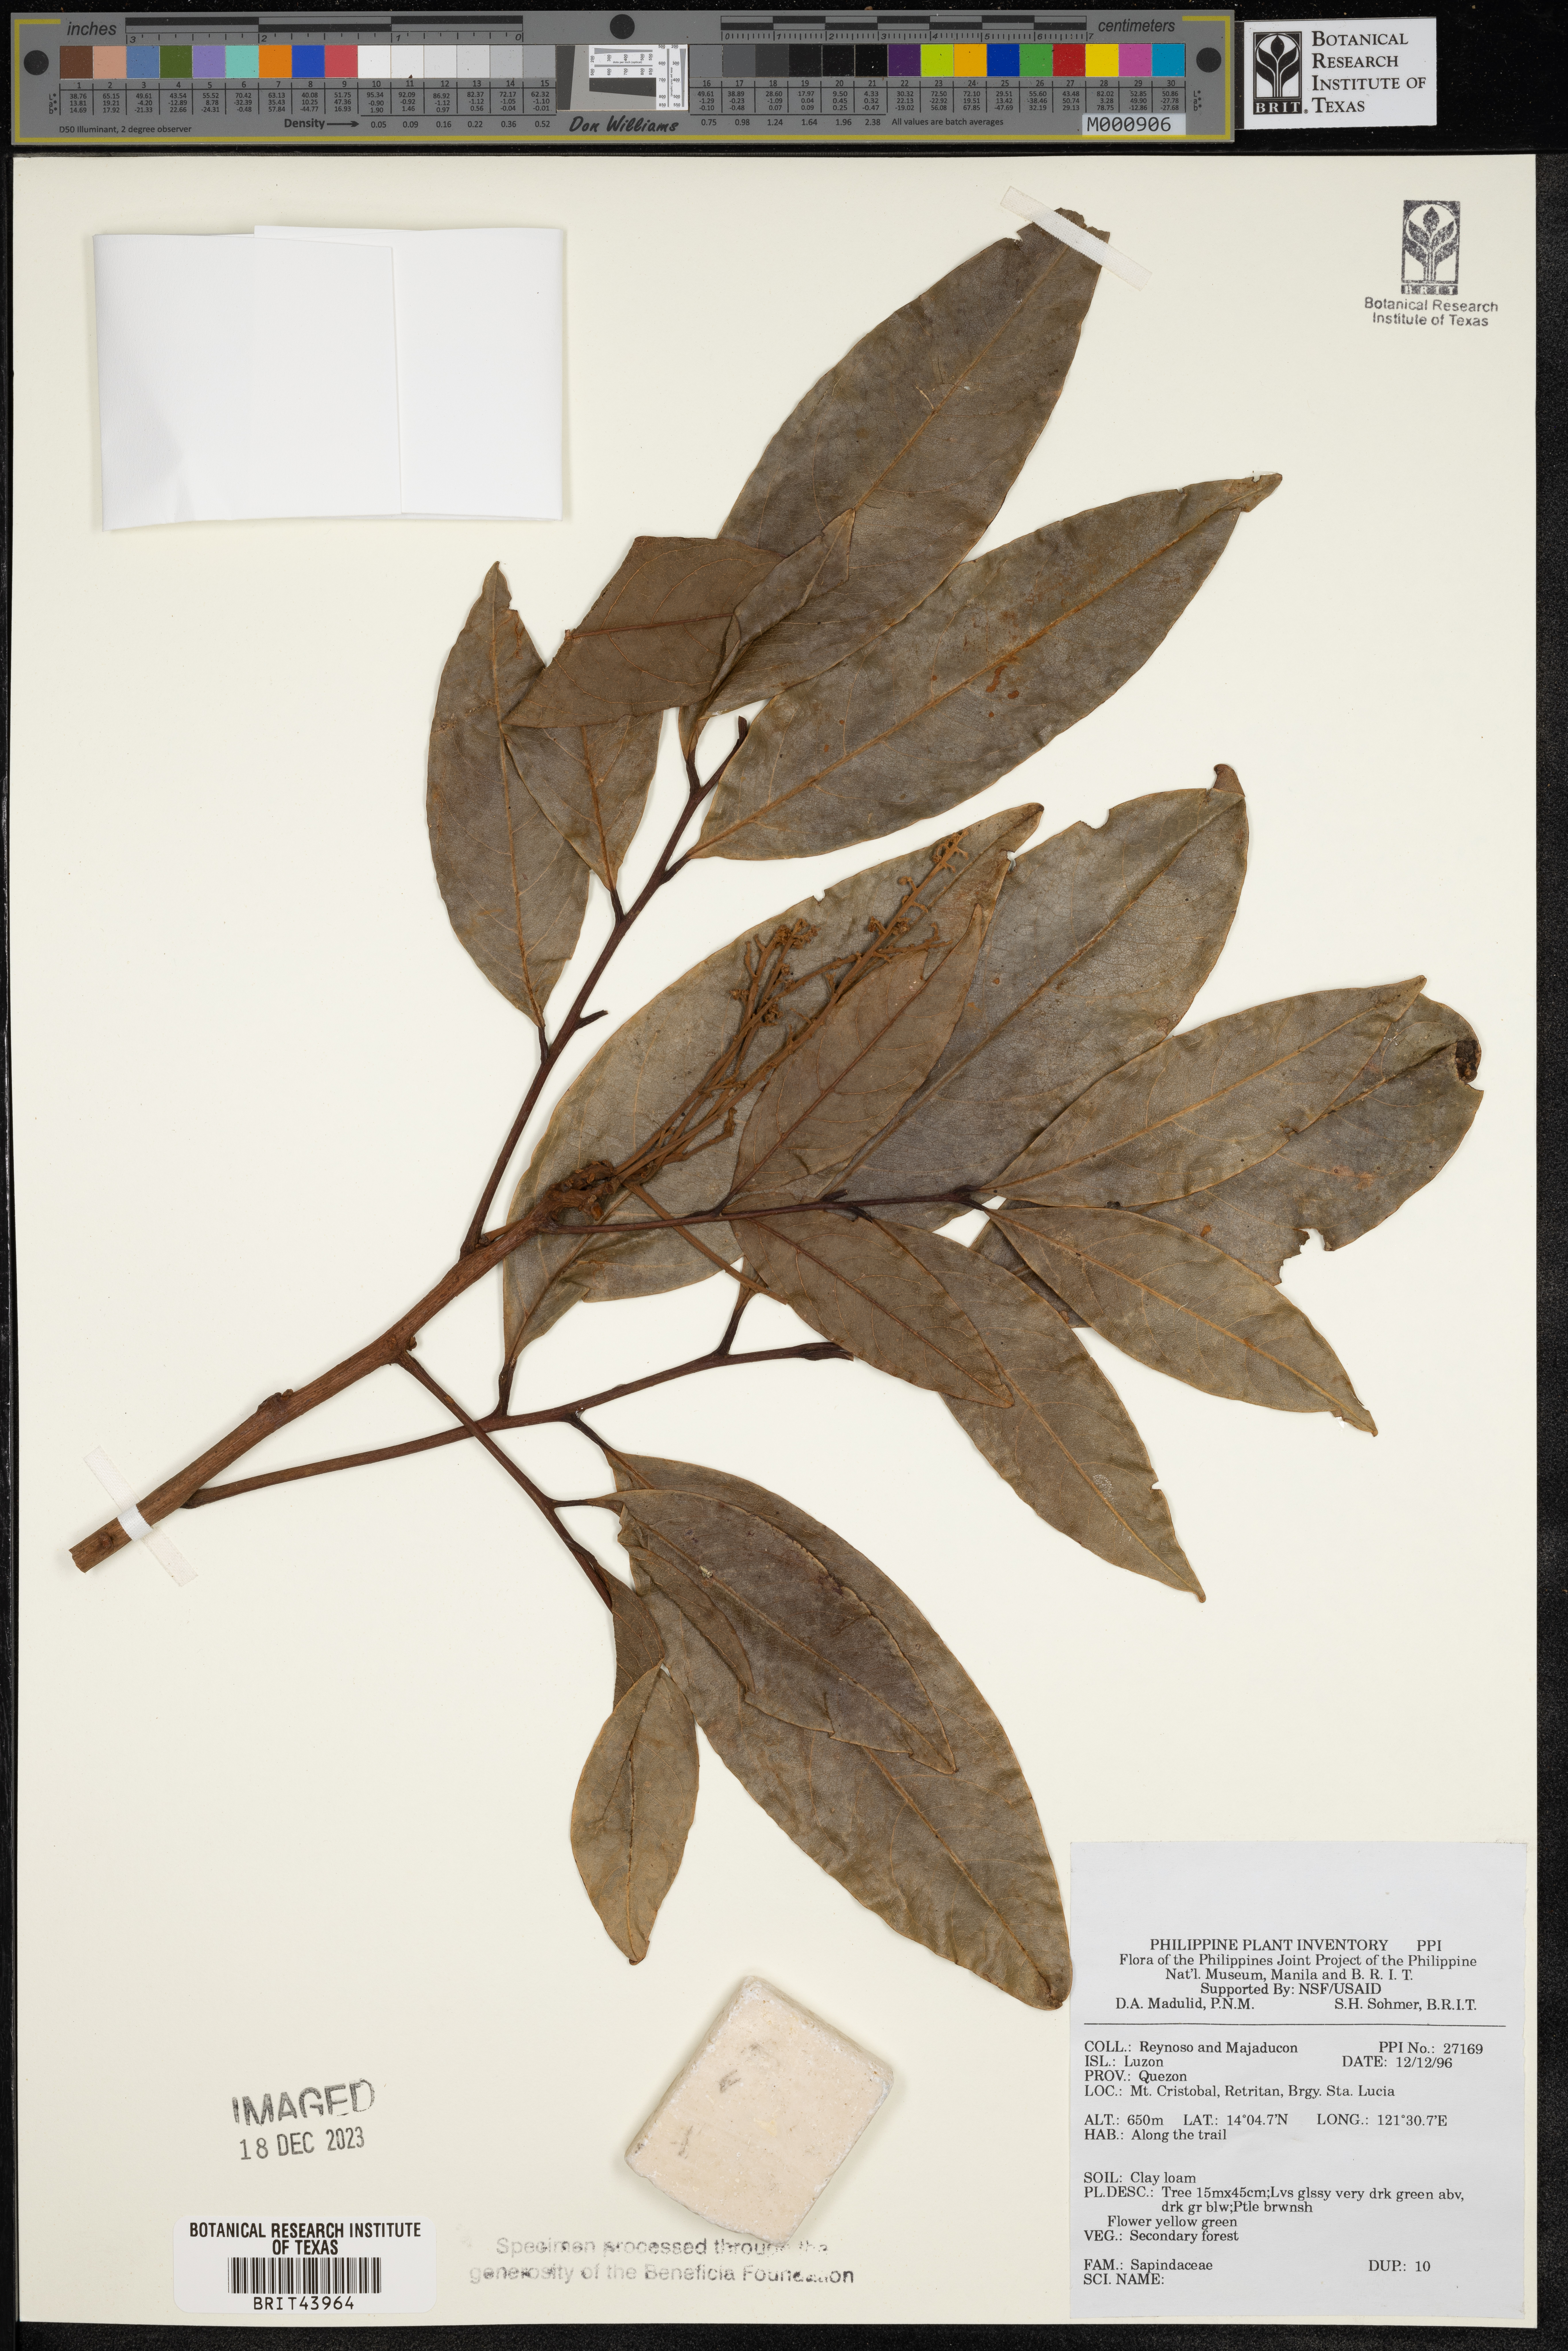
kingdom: Plantae
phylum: Tracheophyta
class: Magnoliopsida
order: Sapindales
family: Sapindaceae
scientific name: Sapindaceae
